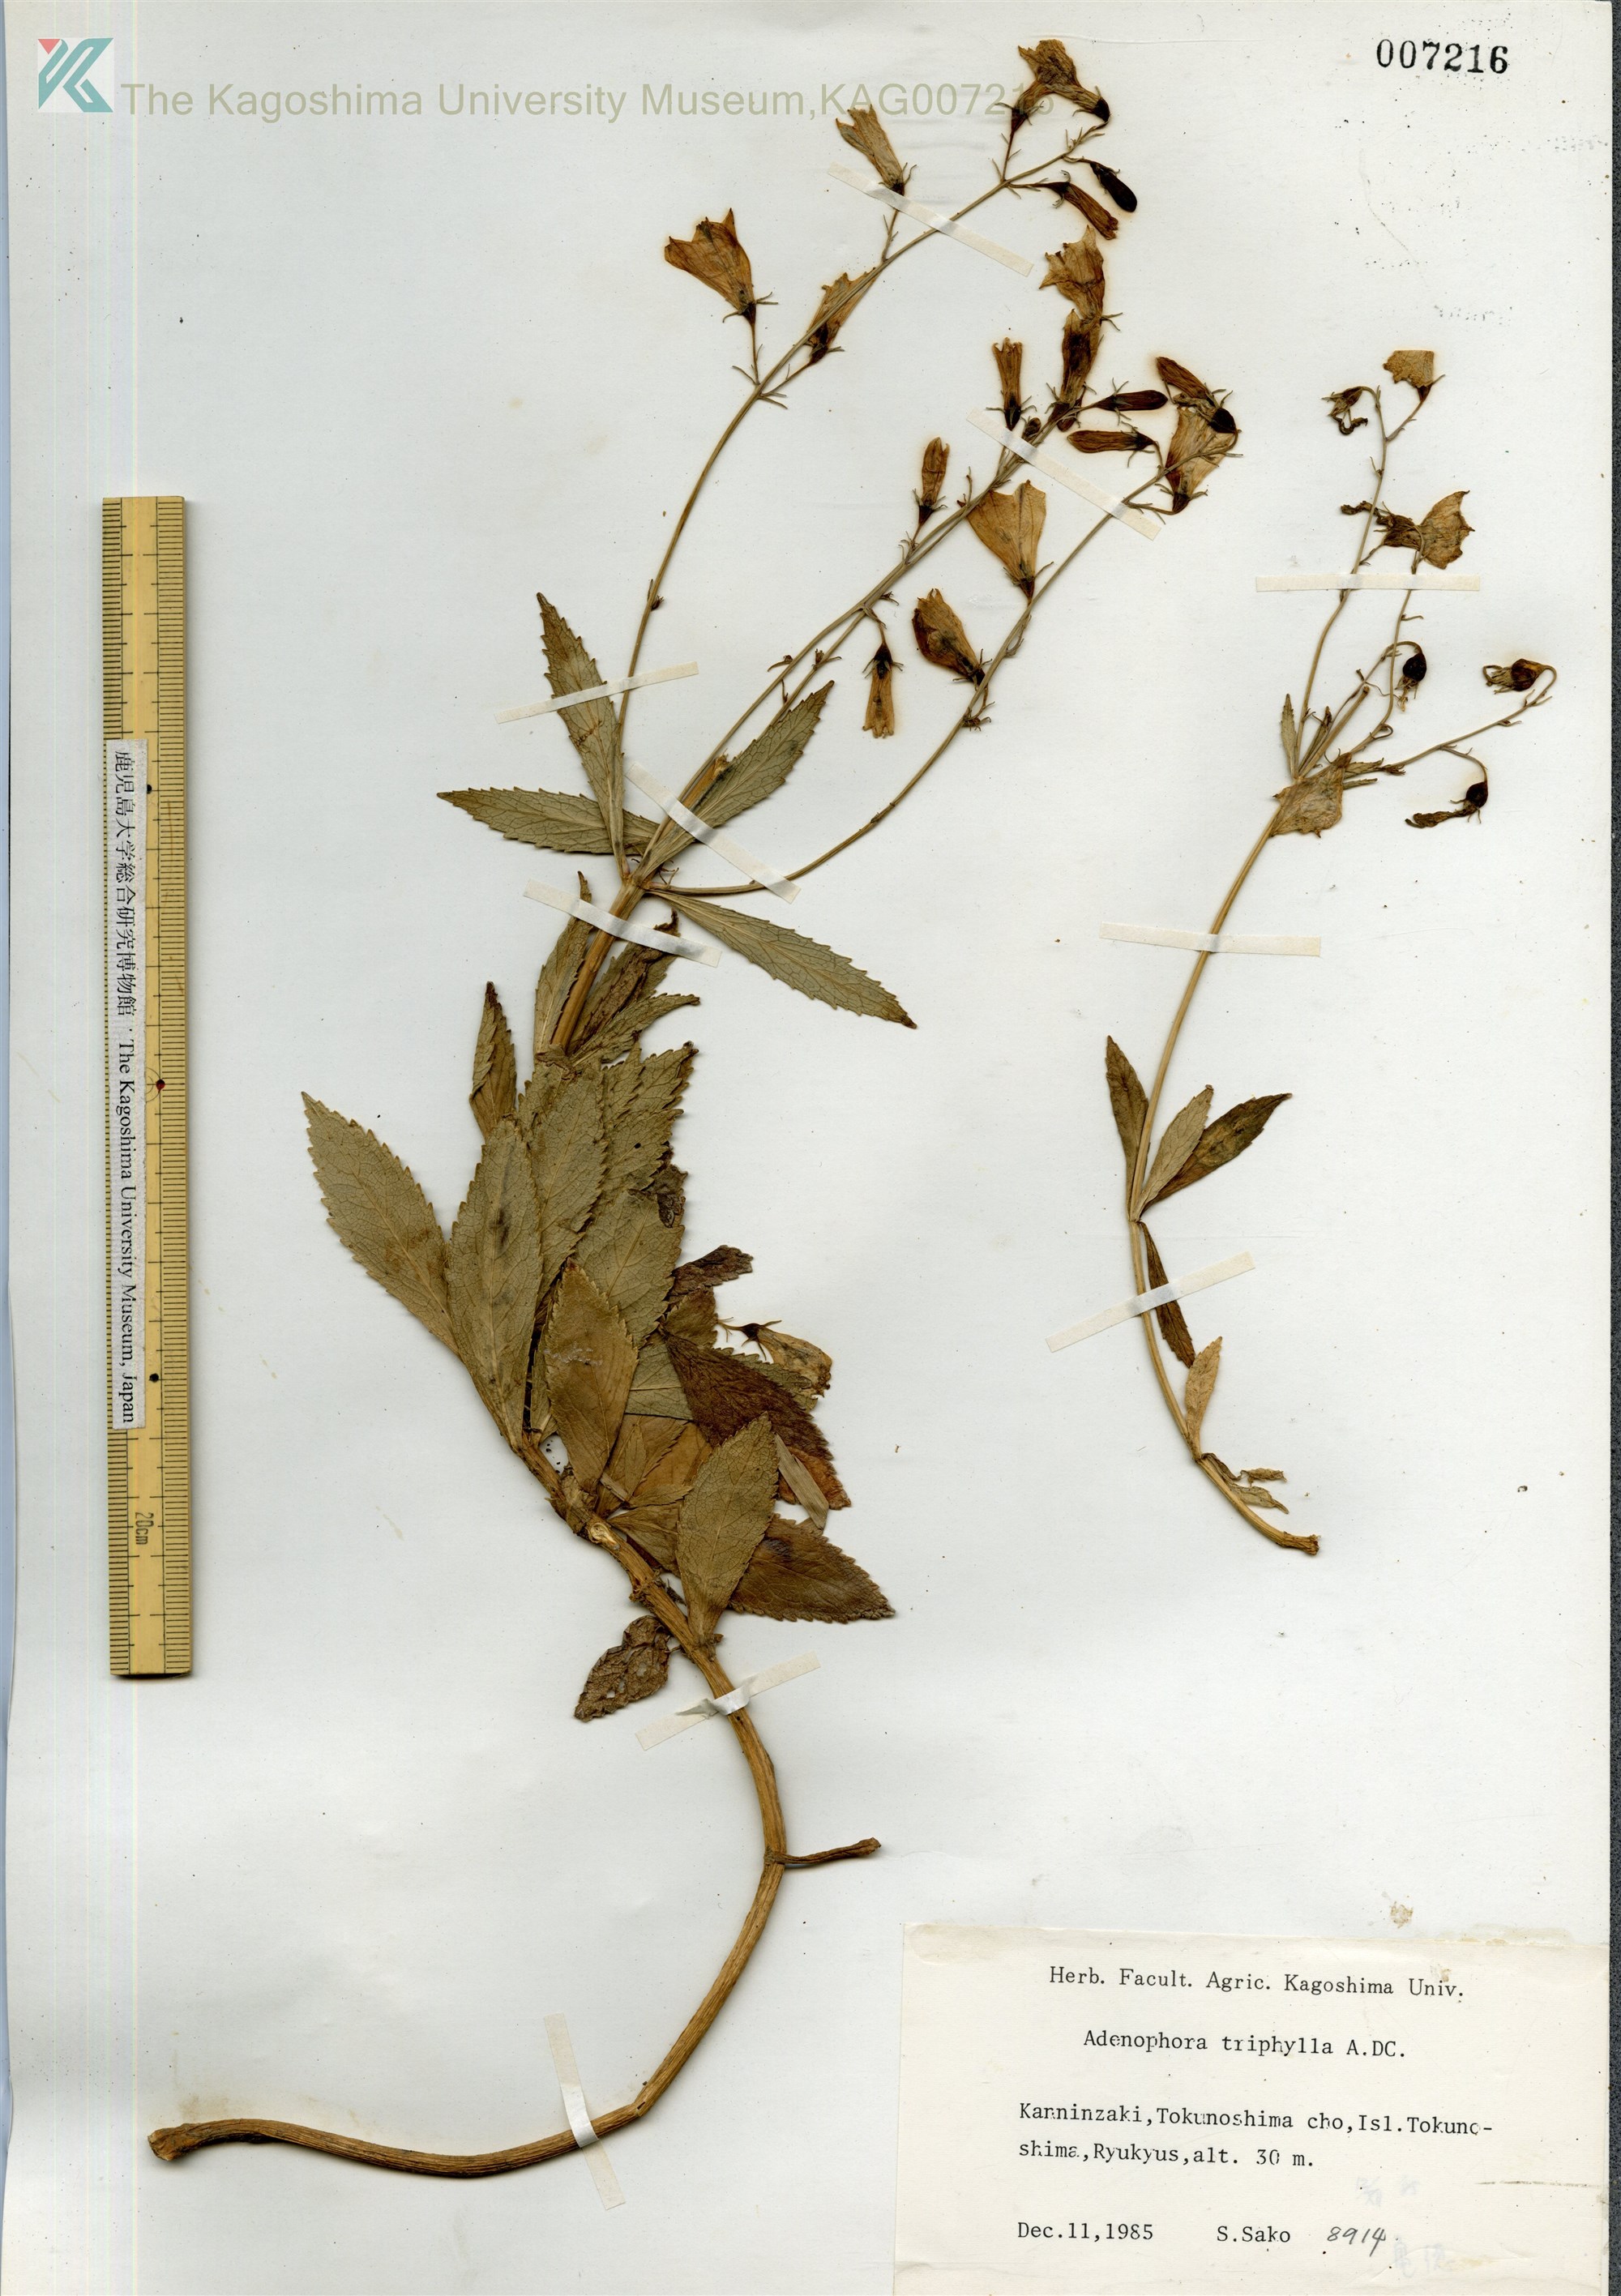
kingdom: Plantae
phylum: Tracheophyta
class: Magnoliopsida
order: Asterales
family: Campanulaceae
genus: Adenophora
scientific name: Adenophora tashiroi
